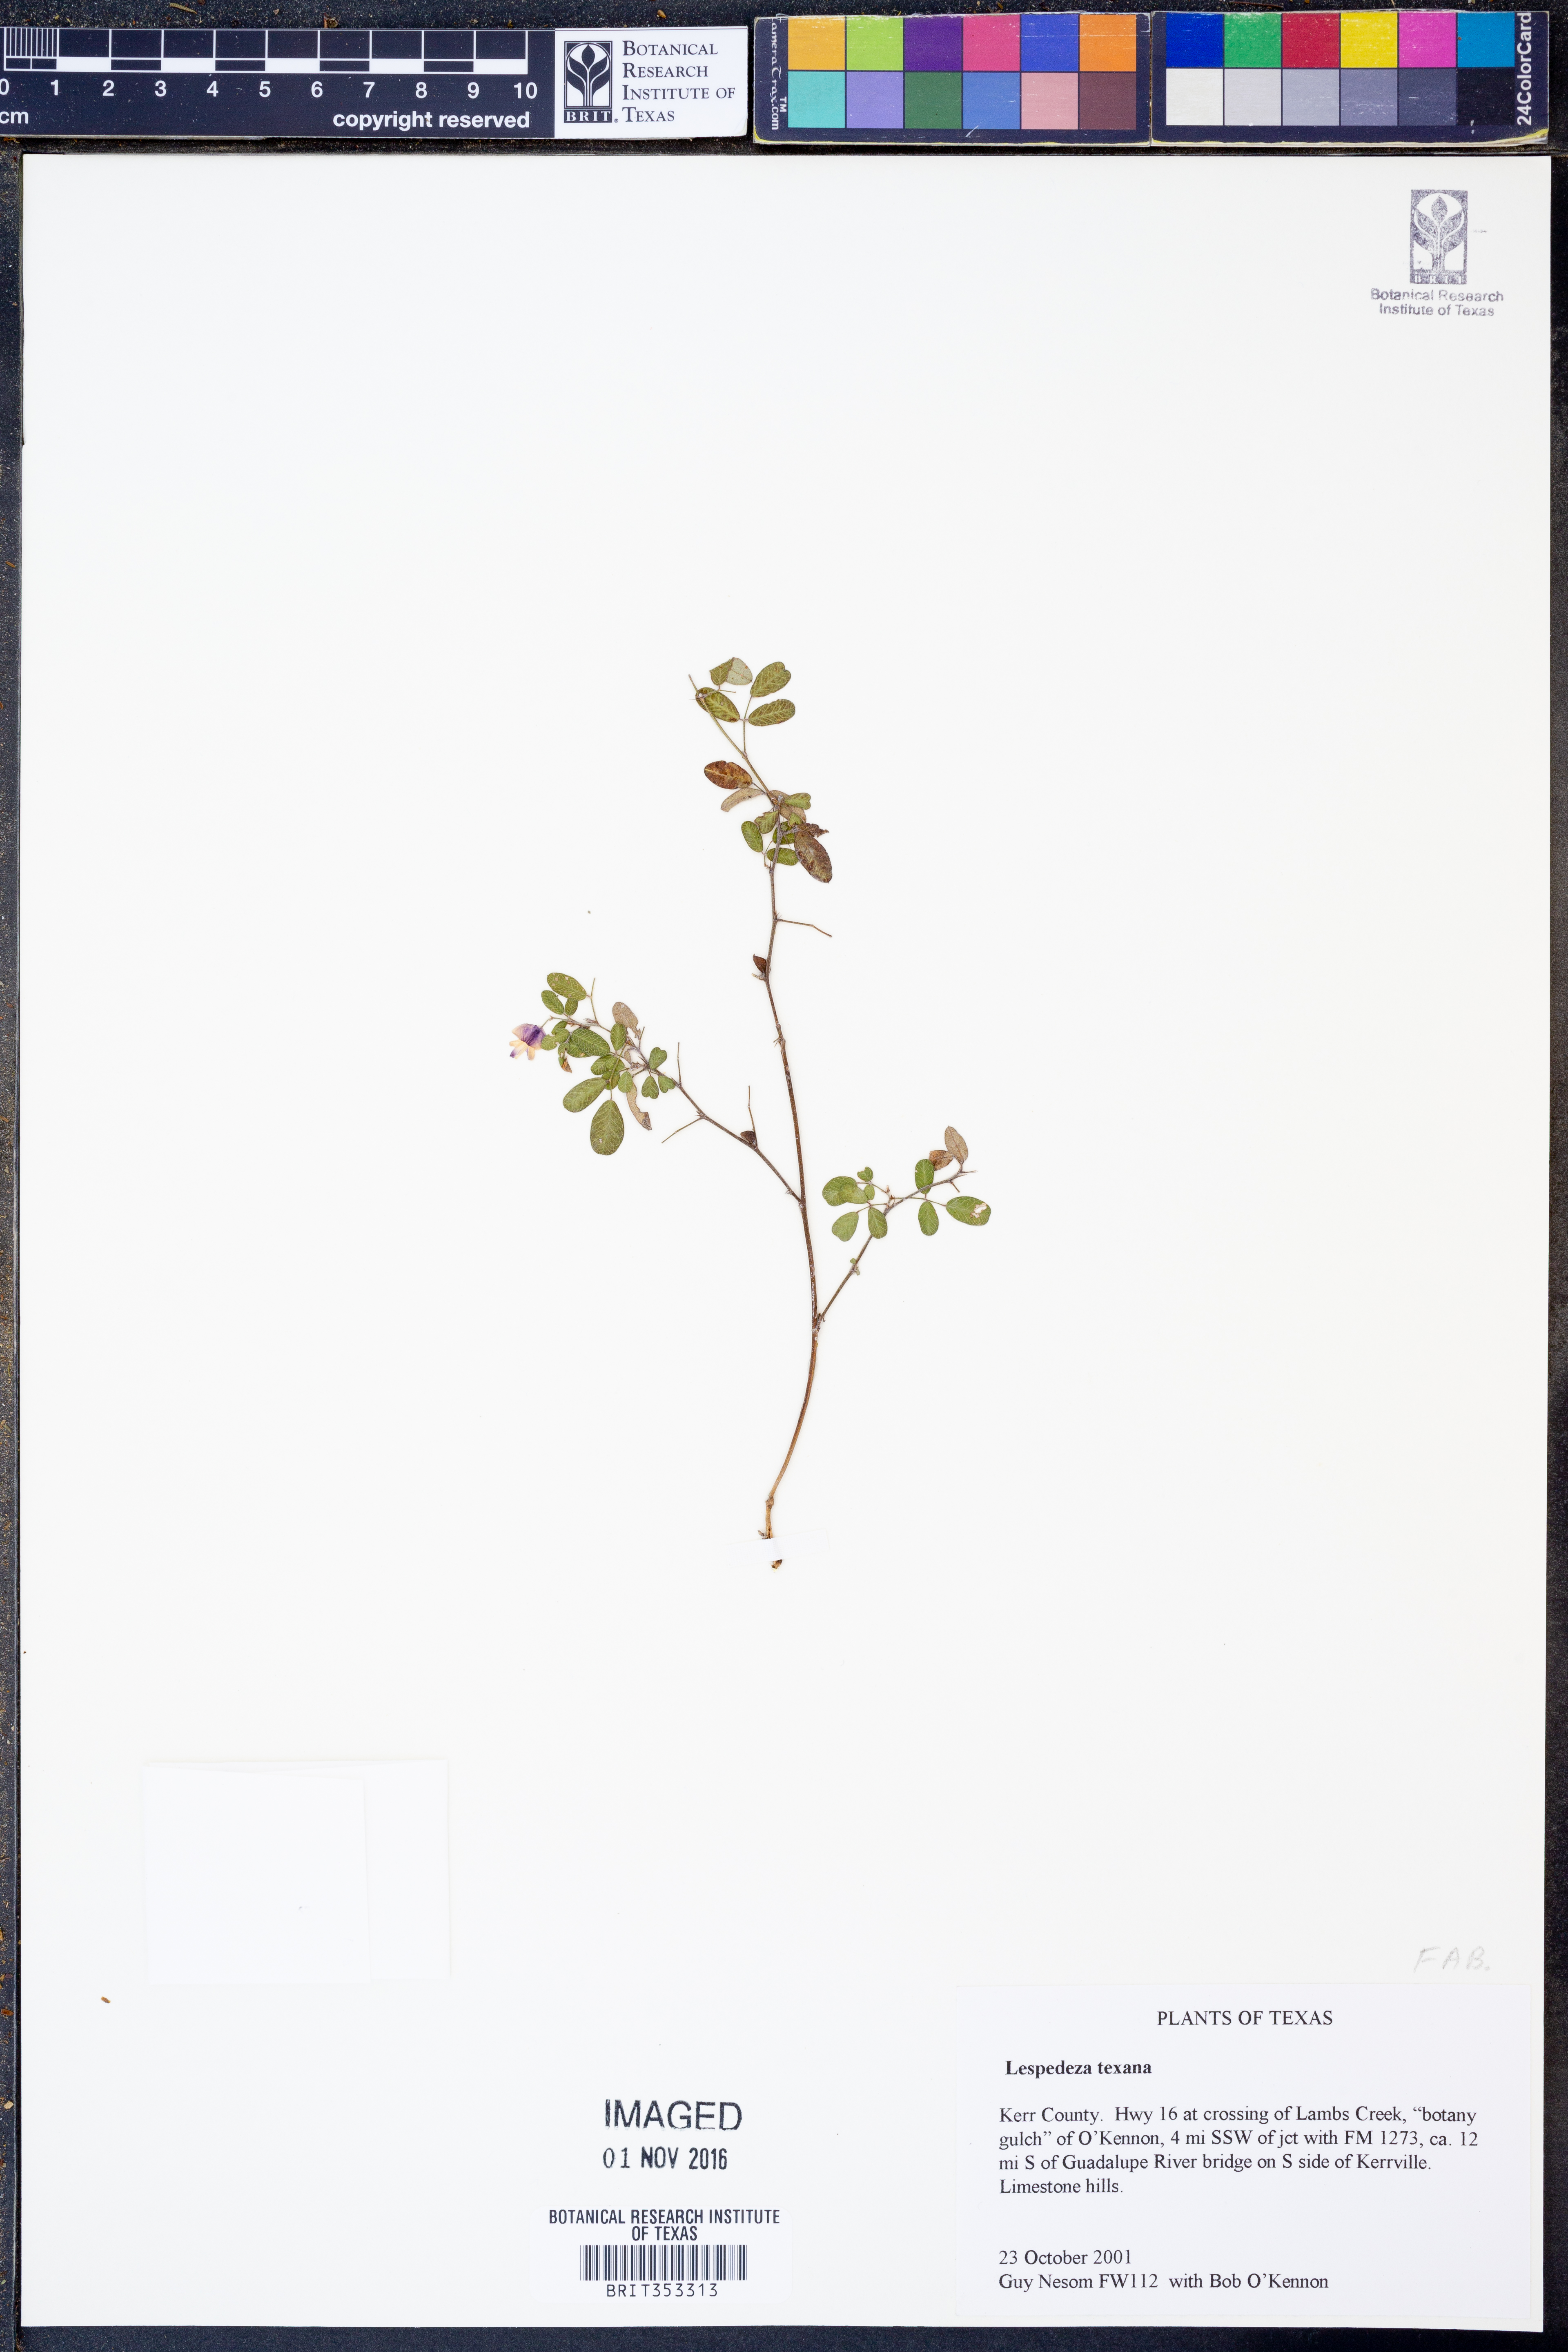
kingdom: Plantae
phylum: Tracheophyta
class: Magnoliopsida
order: Fabales
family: Fabaceae
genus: Lespedeza
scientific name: Lespedeza texana
